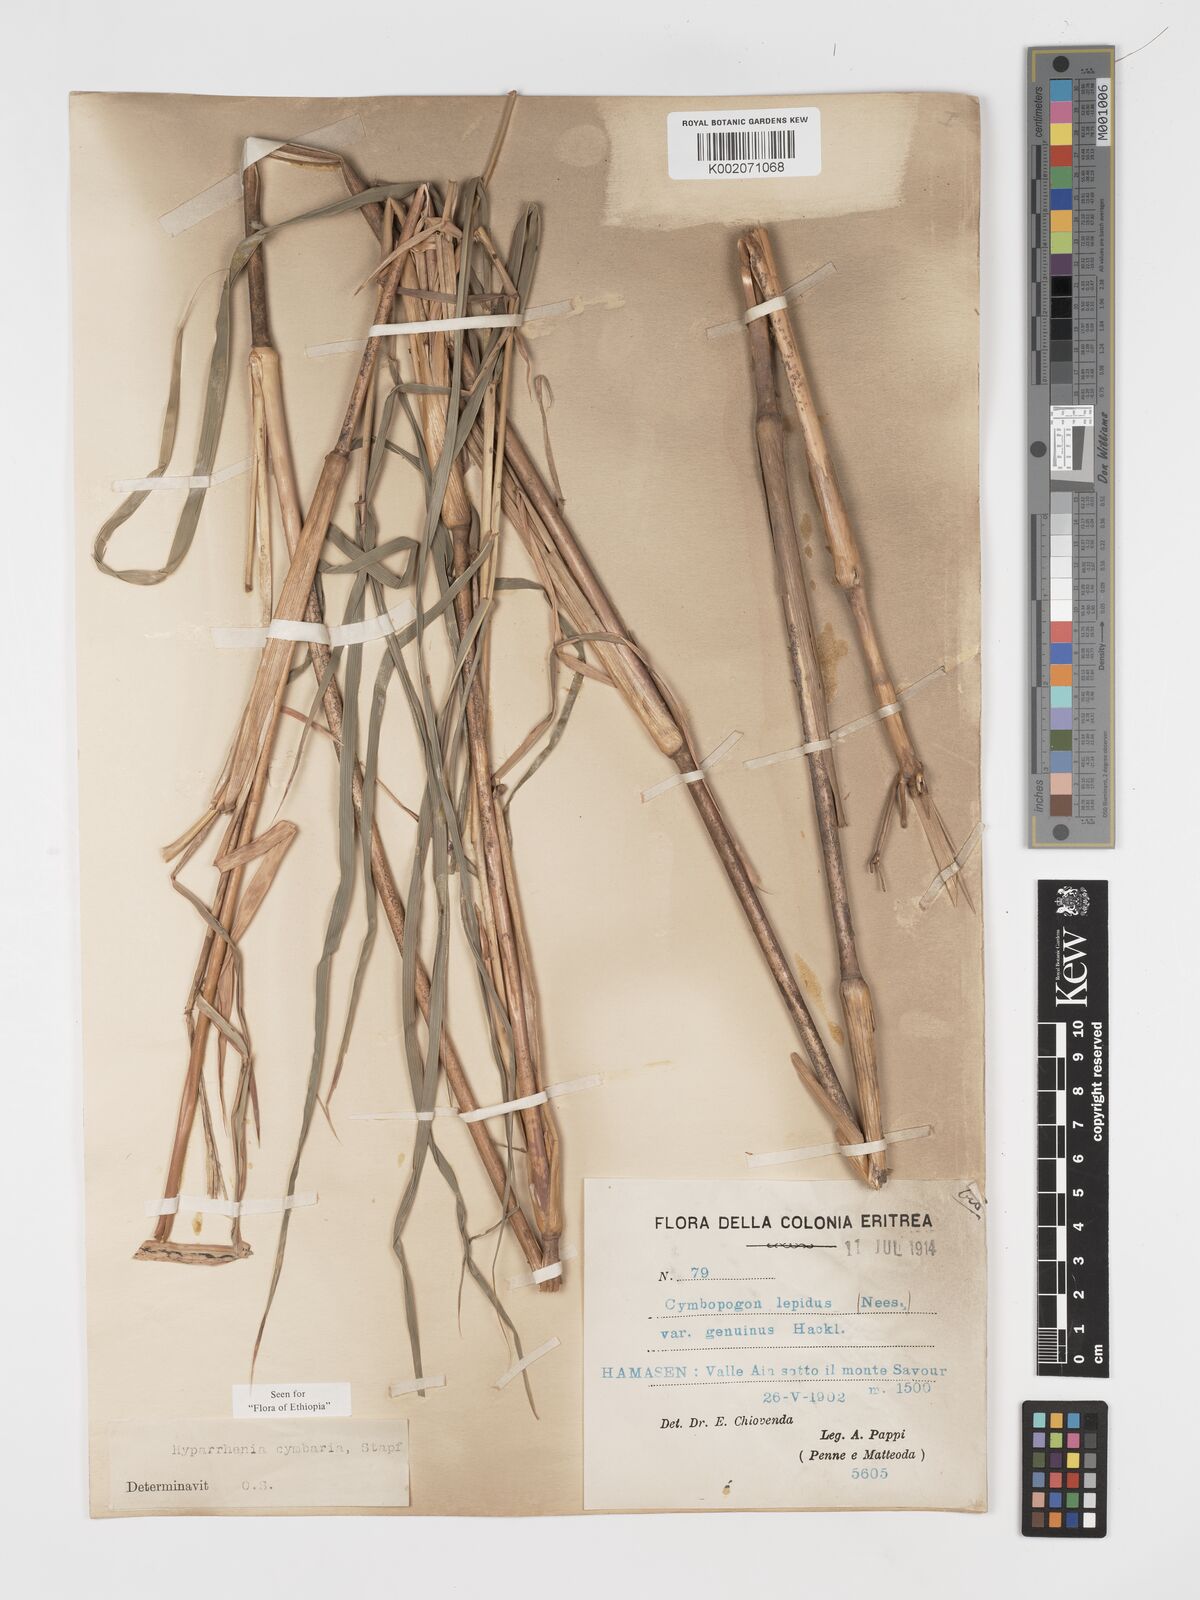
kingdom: Plantae
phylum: Tracheophyta
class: Liliopsida
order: Poales
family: Poaceae
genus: Hyparrhenia
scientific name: Hyparrhenia cymbaria
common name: Boat thatching grass
